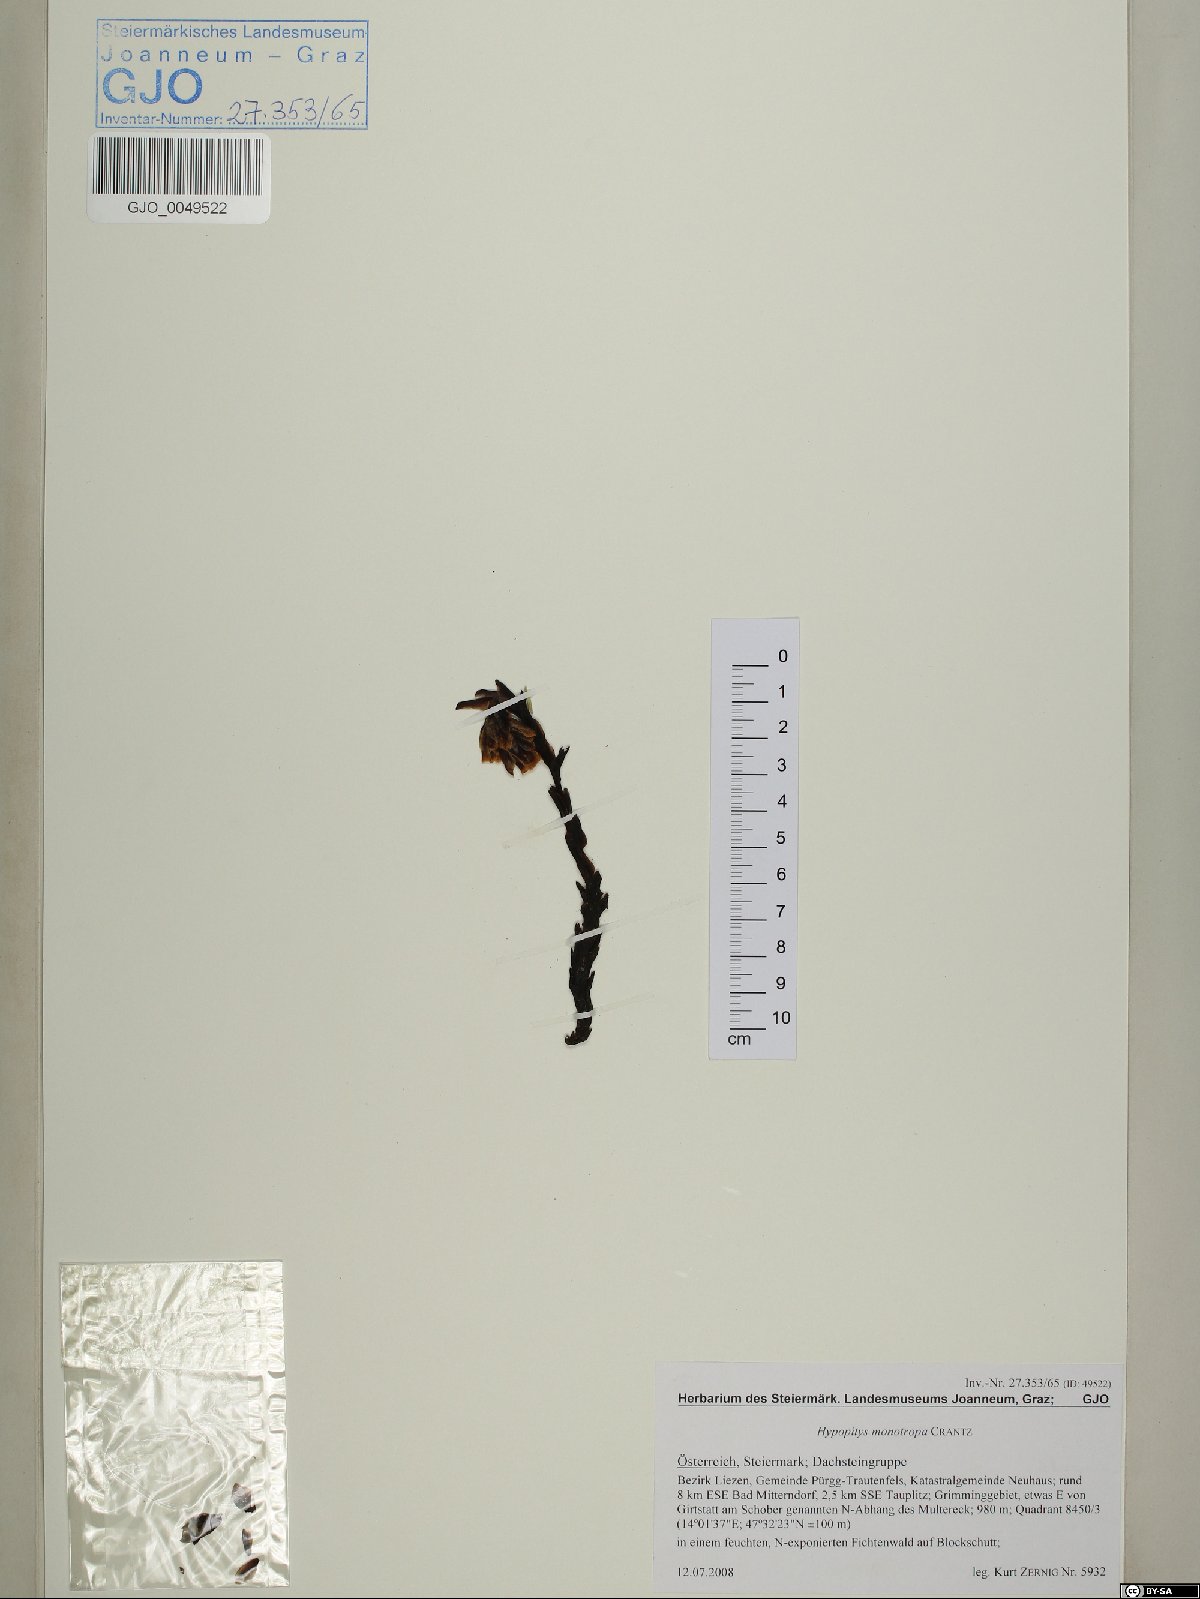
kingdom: Plantae
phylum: Tracheophyta
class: Magnoliopsida
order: Ericales
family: Ericaceae
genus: Hypopitys
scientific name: Hypopitys monotropa
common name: Yellow bird's-nest
